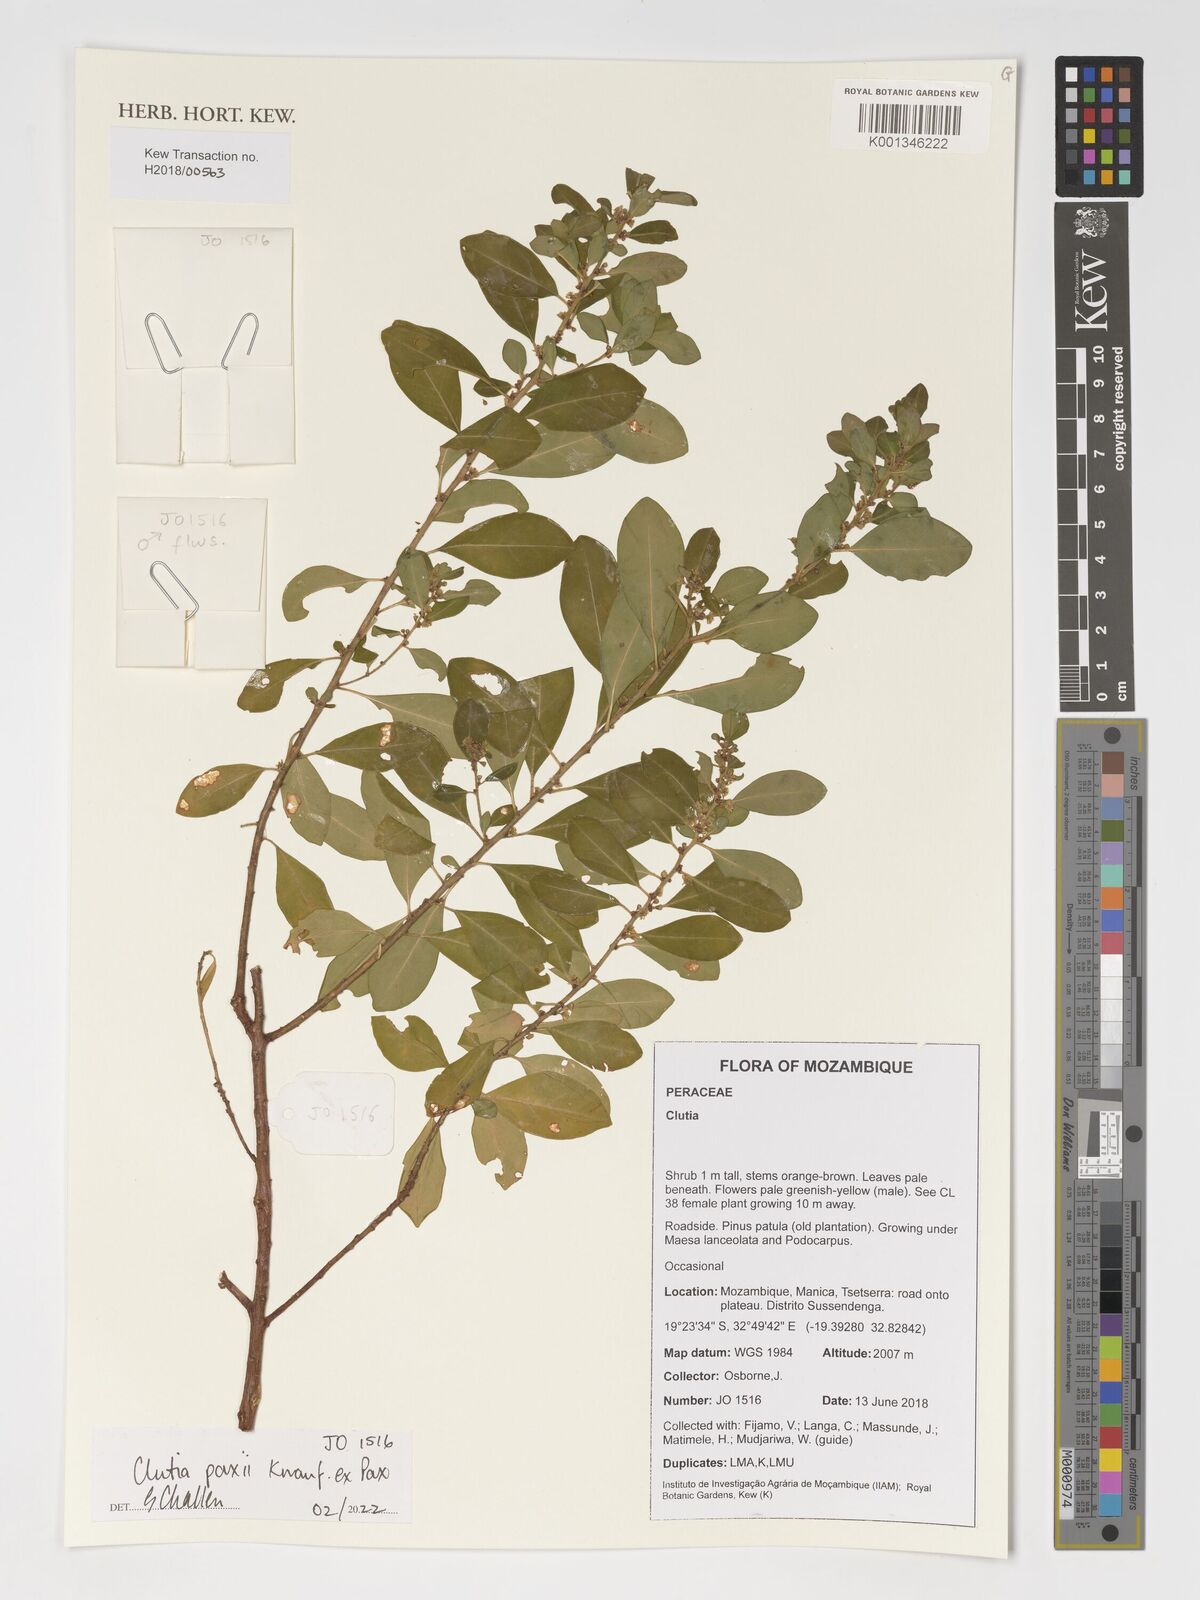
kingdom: Plantae
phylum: Tracheophyta
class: Magnoliopsida
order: Malpighiales
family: Peraceae
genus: Clutia
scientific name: Clutia paxii
